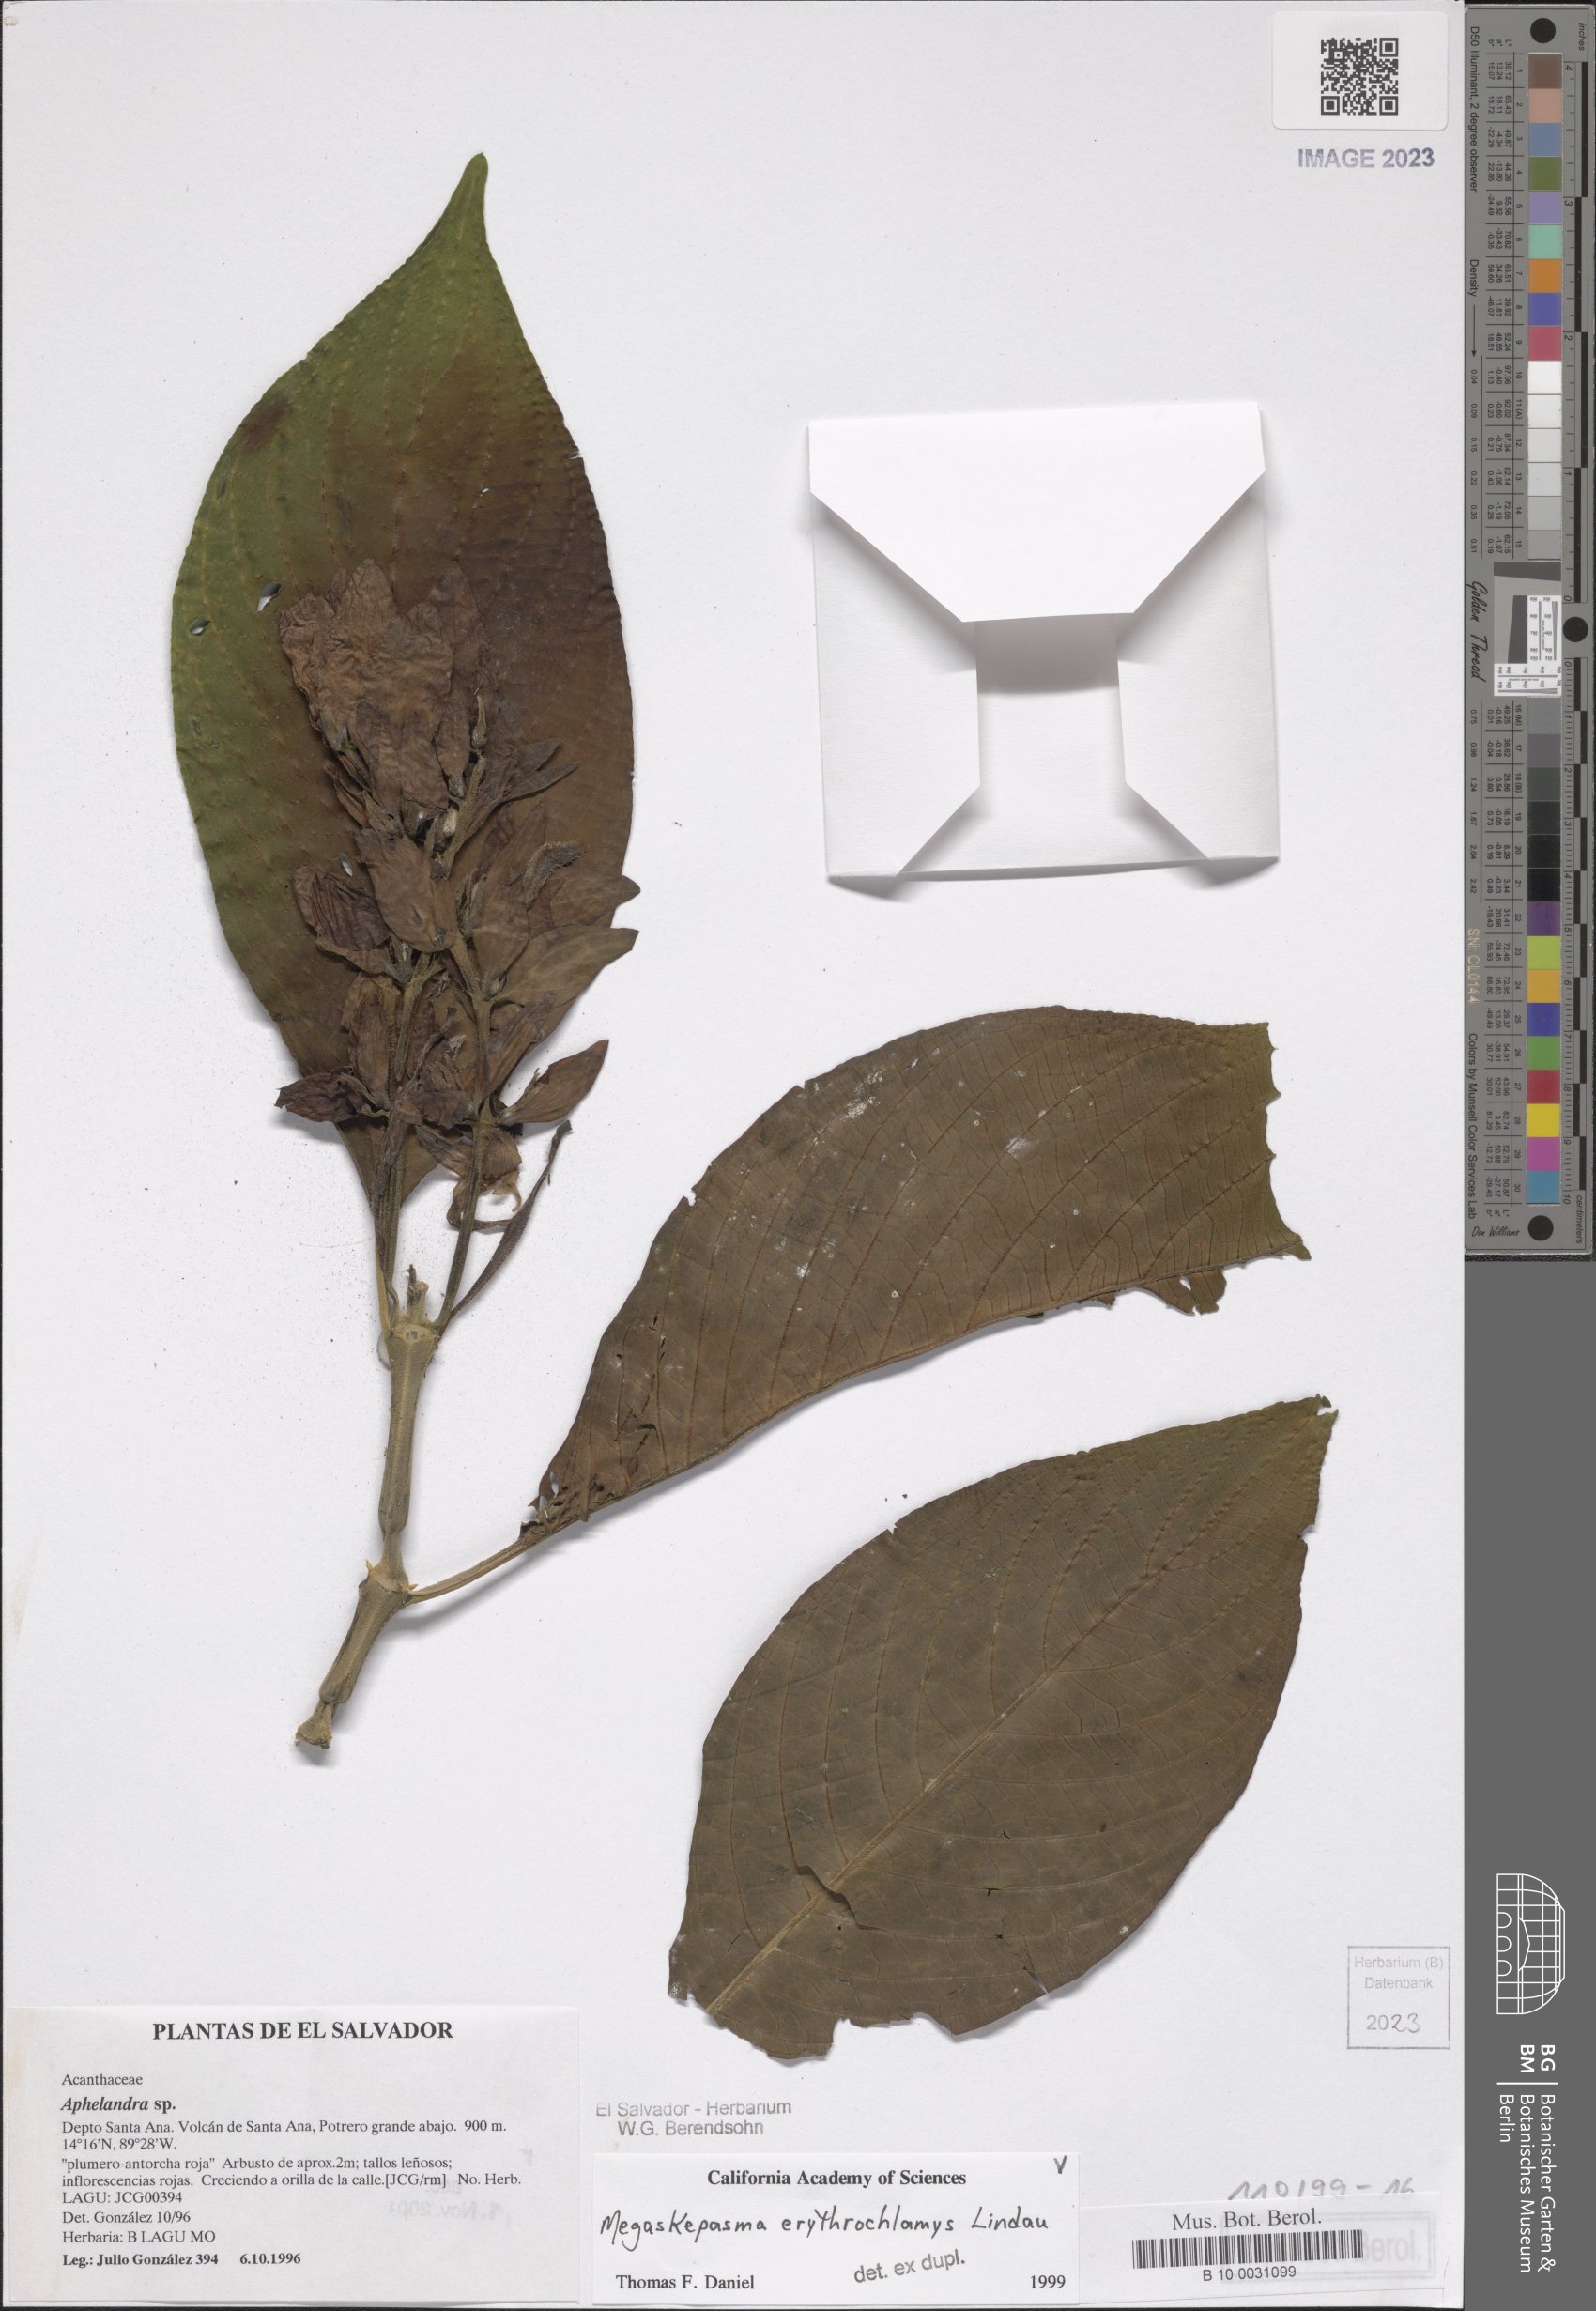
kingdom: Plantae
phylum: Tracheophyta
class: Magnoliopsida
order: Lamiales
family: Acanthaceae
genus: Megaskepasma
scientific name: Megaskepasma erythrochlamys
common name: Brazilian red-cloak
